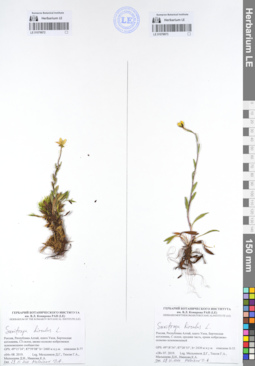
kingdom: Plantae
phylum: Tracheophyta
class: Magnoliopsida
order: Saxifragales
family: Saxifragaceae
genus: Saxifraga
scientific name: Saxifraga hirculus
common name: Yellow marsh saxifrage
